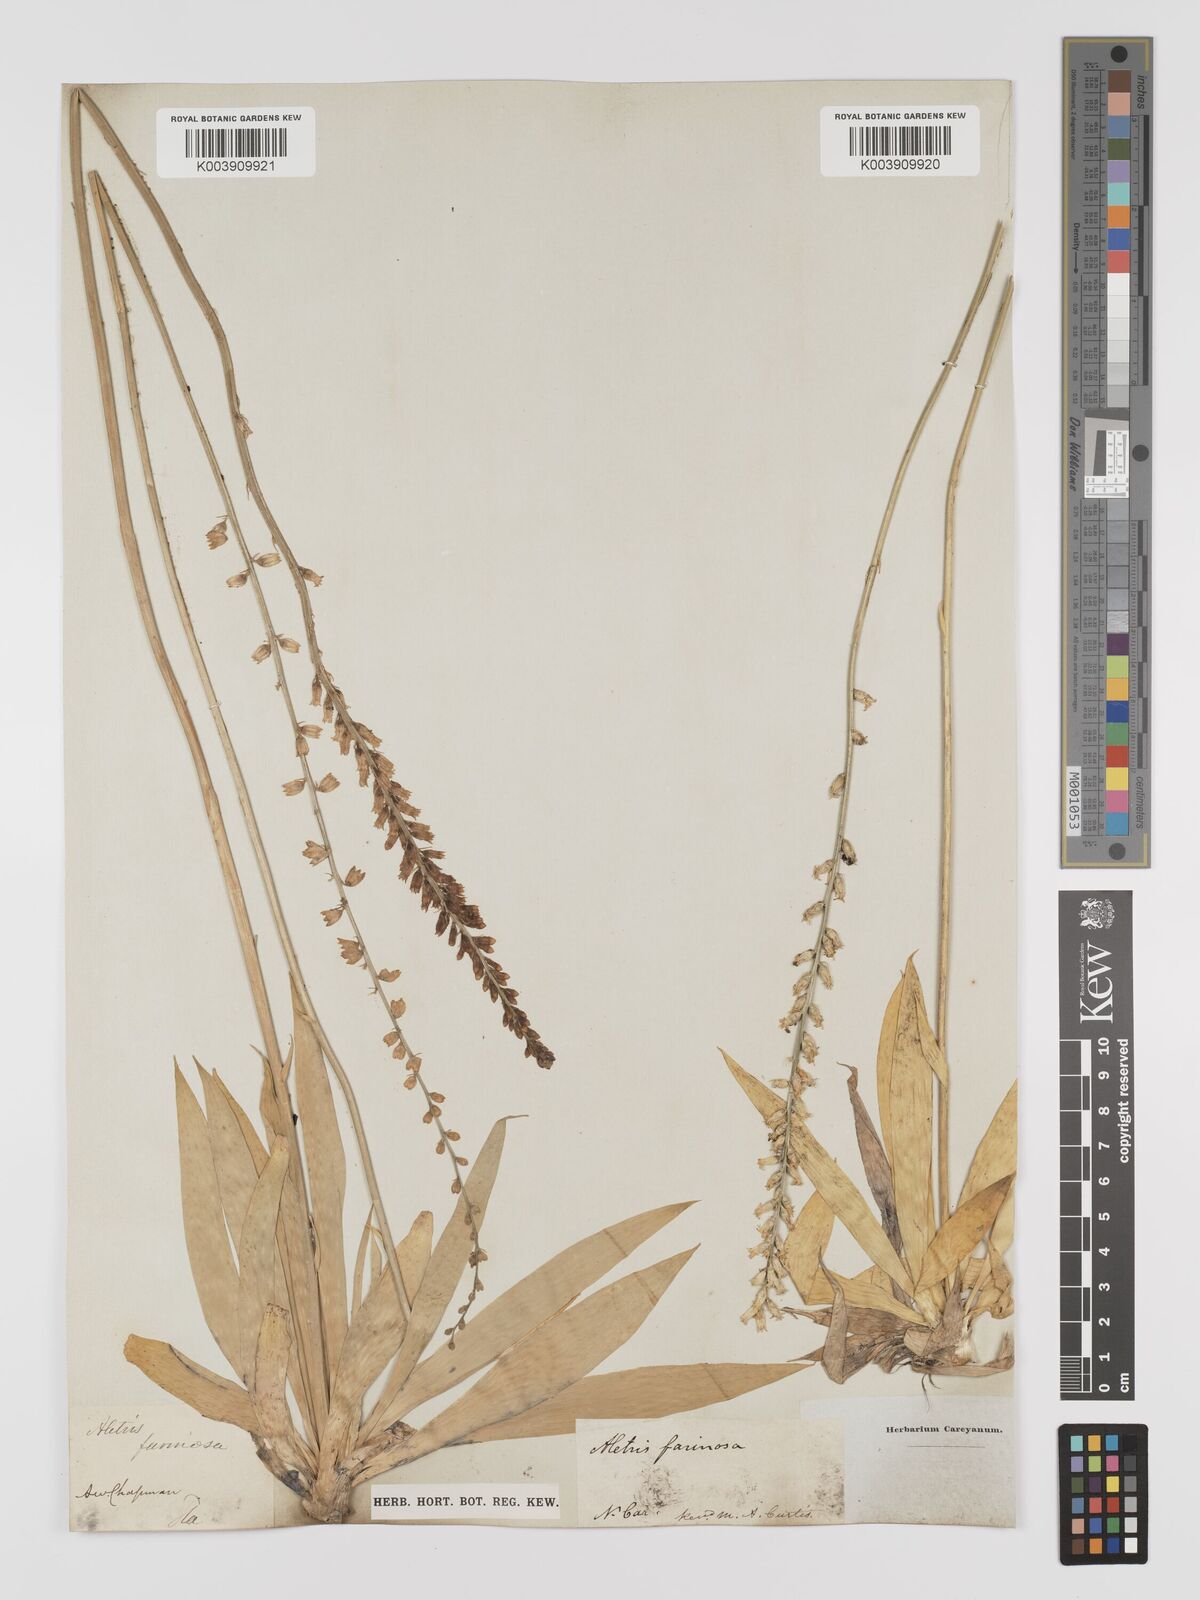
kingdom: Plantae
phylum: Tracheophyta
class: Liliopsida
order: Dioscoreales
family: Nartheciaceae
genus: Aletris
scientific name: Aletris farinosa
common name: Colicroot
